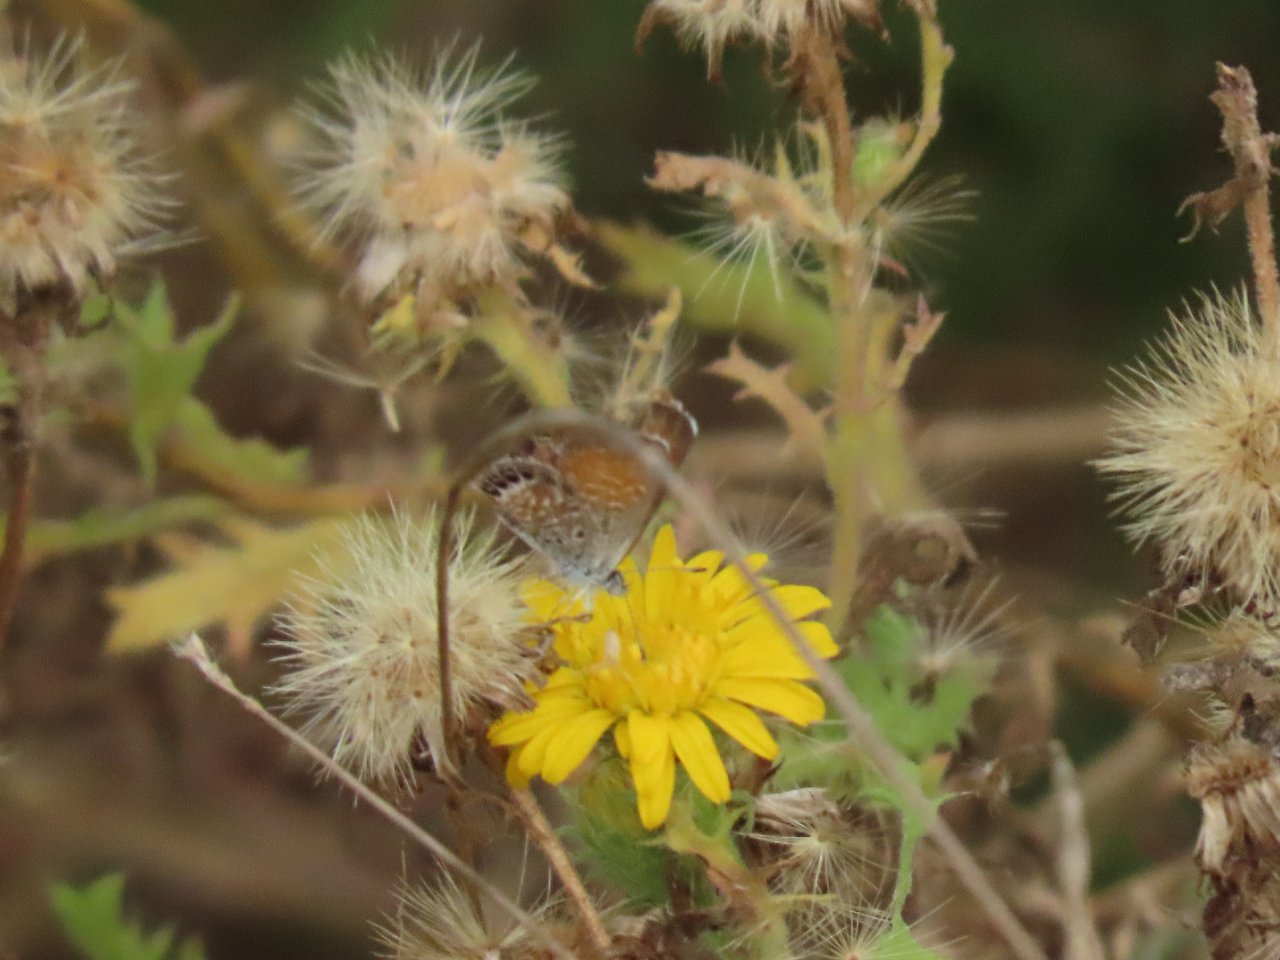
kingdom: Animalia
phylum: Arthropoda
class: Insecta
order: Lepidoptera
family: Lycaenidae
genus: Brephidium
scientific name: Brephidium exilis
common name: Western Pygmy-Blue
